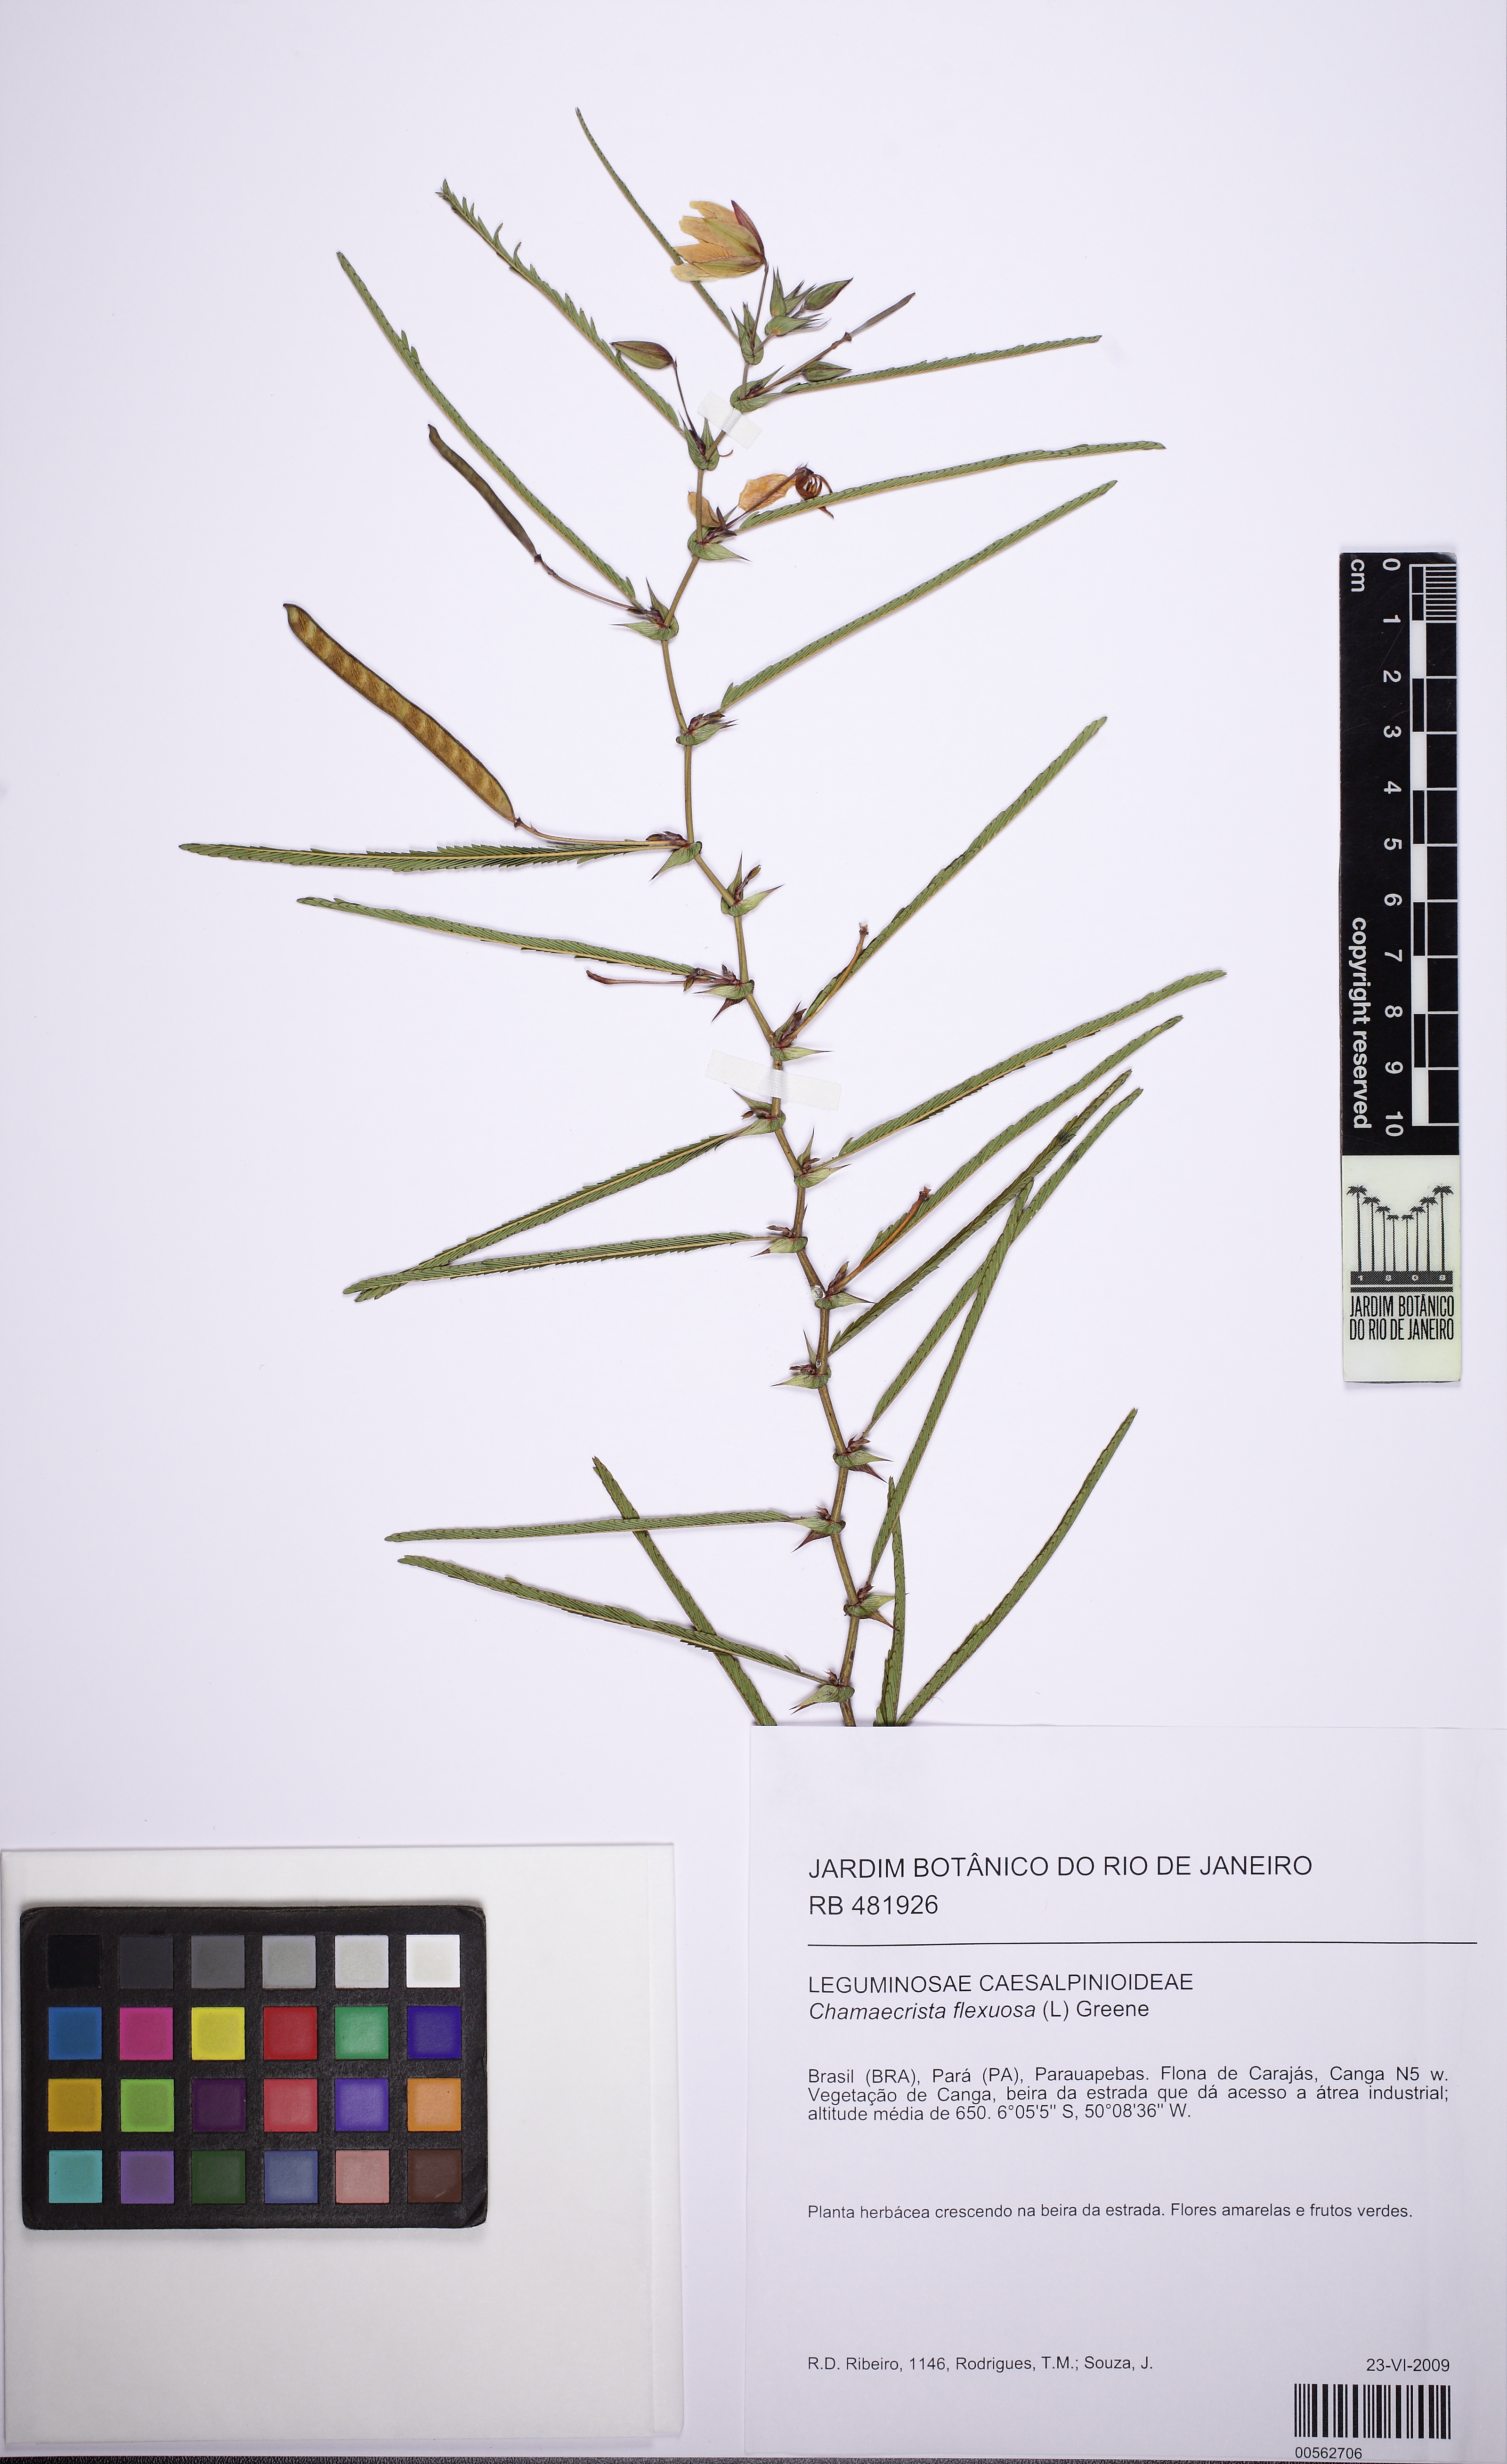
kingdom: Plantae
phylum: Tracheophyta
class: Magnoliopsida
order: Fabales
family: Fabaceae
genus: Chamaecrista
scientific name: Chamaecrista flexuosa
